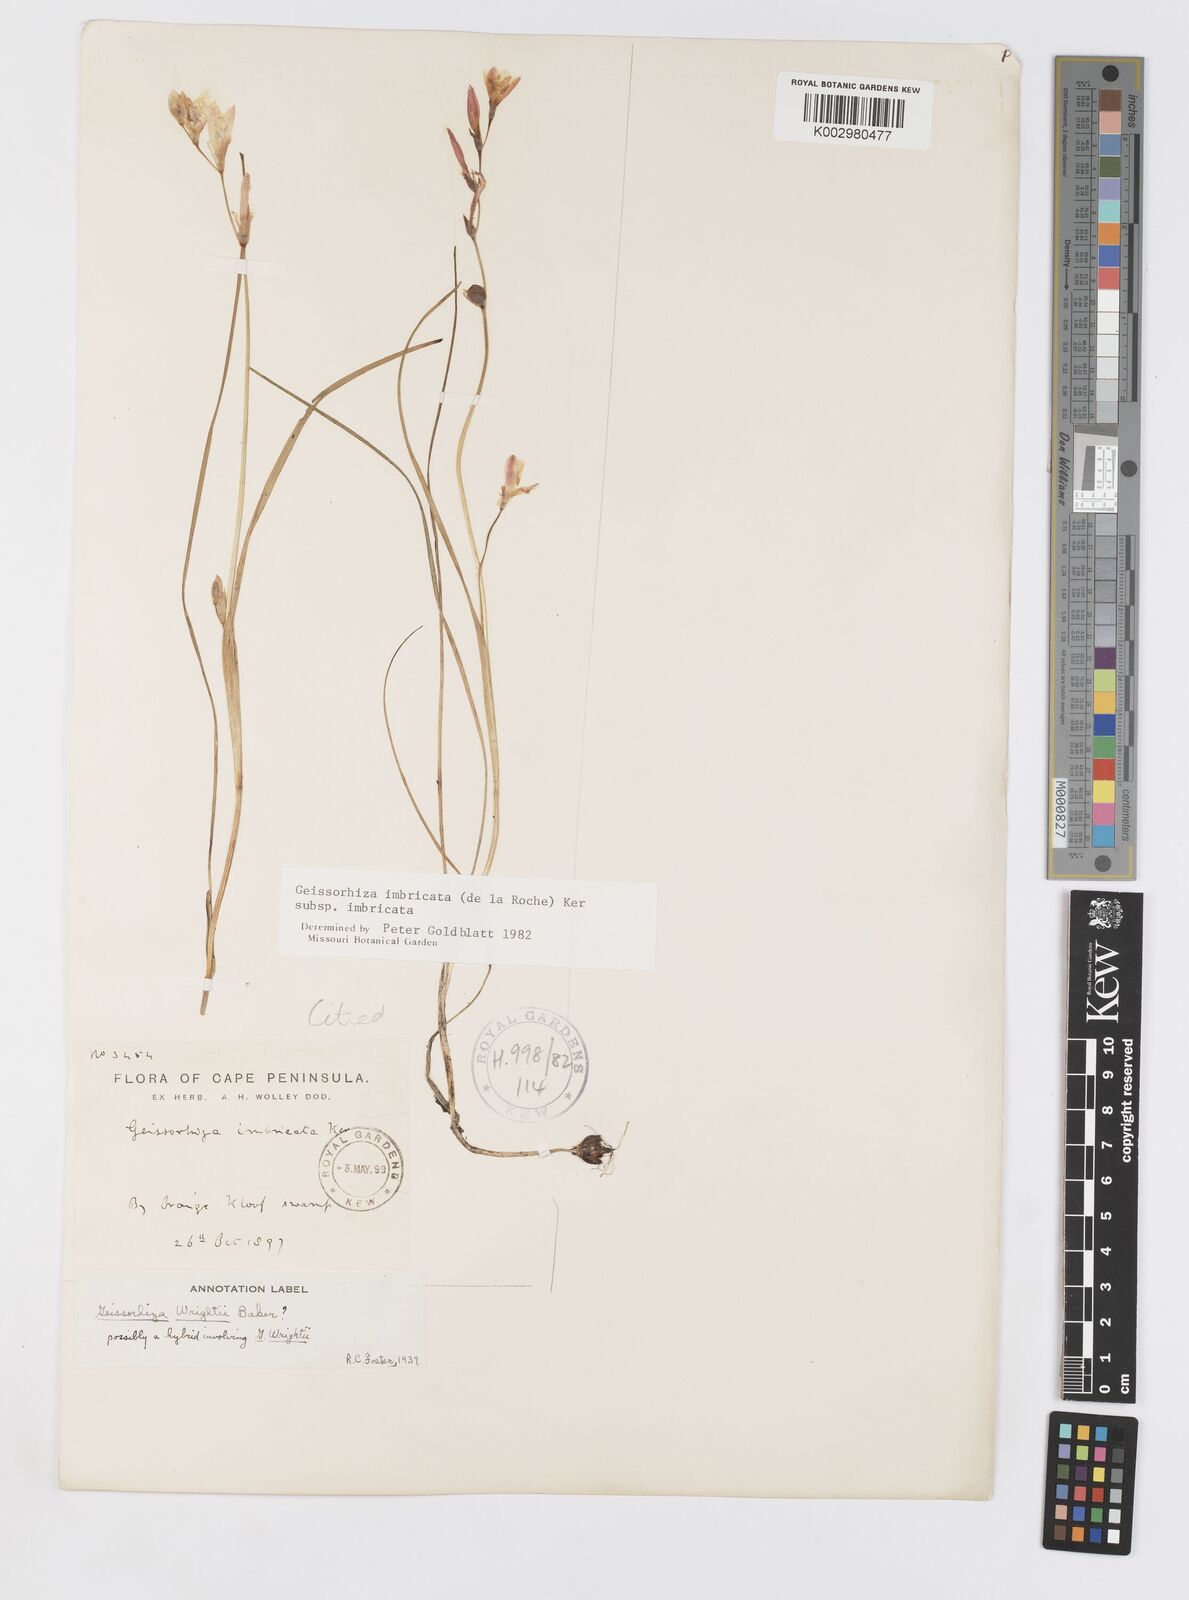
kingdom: Plantae
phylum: Tracheophyta
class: Liliopsida
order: Asparagales
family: Iridaceae
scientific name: Iridaceae
